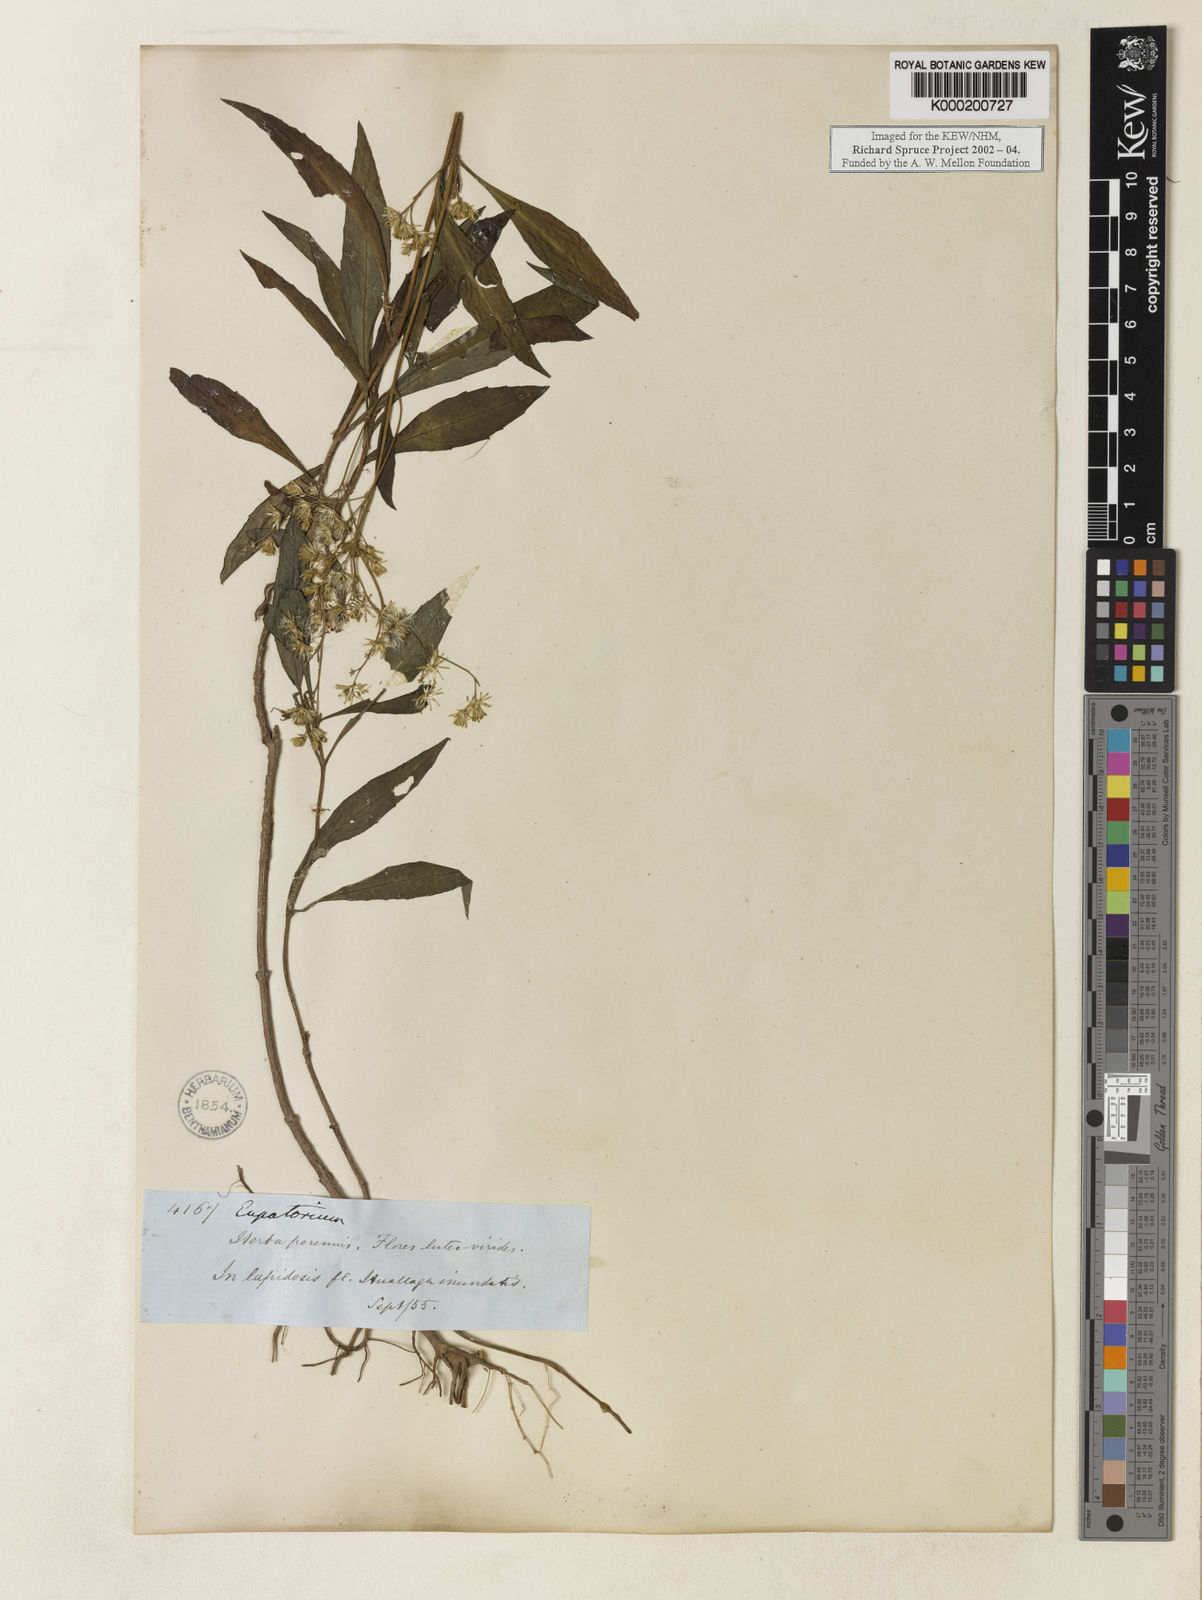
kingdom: Plantae
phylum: Tracheophyta
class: Magnoliopsida
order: Asterales
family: Asteraceae
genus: Fleischmannia
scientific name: Fleischmannia
